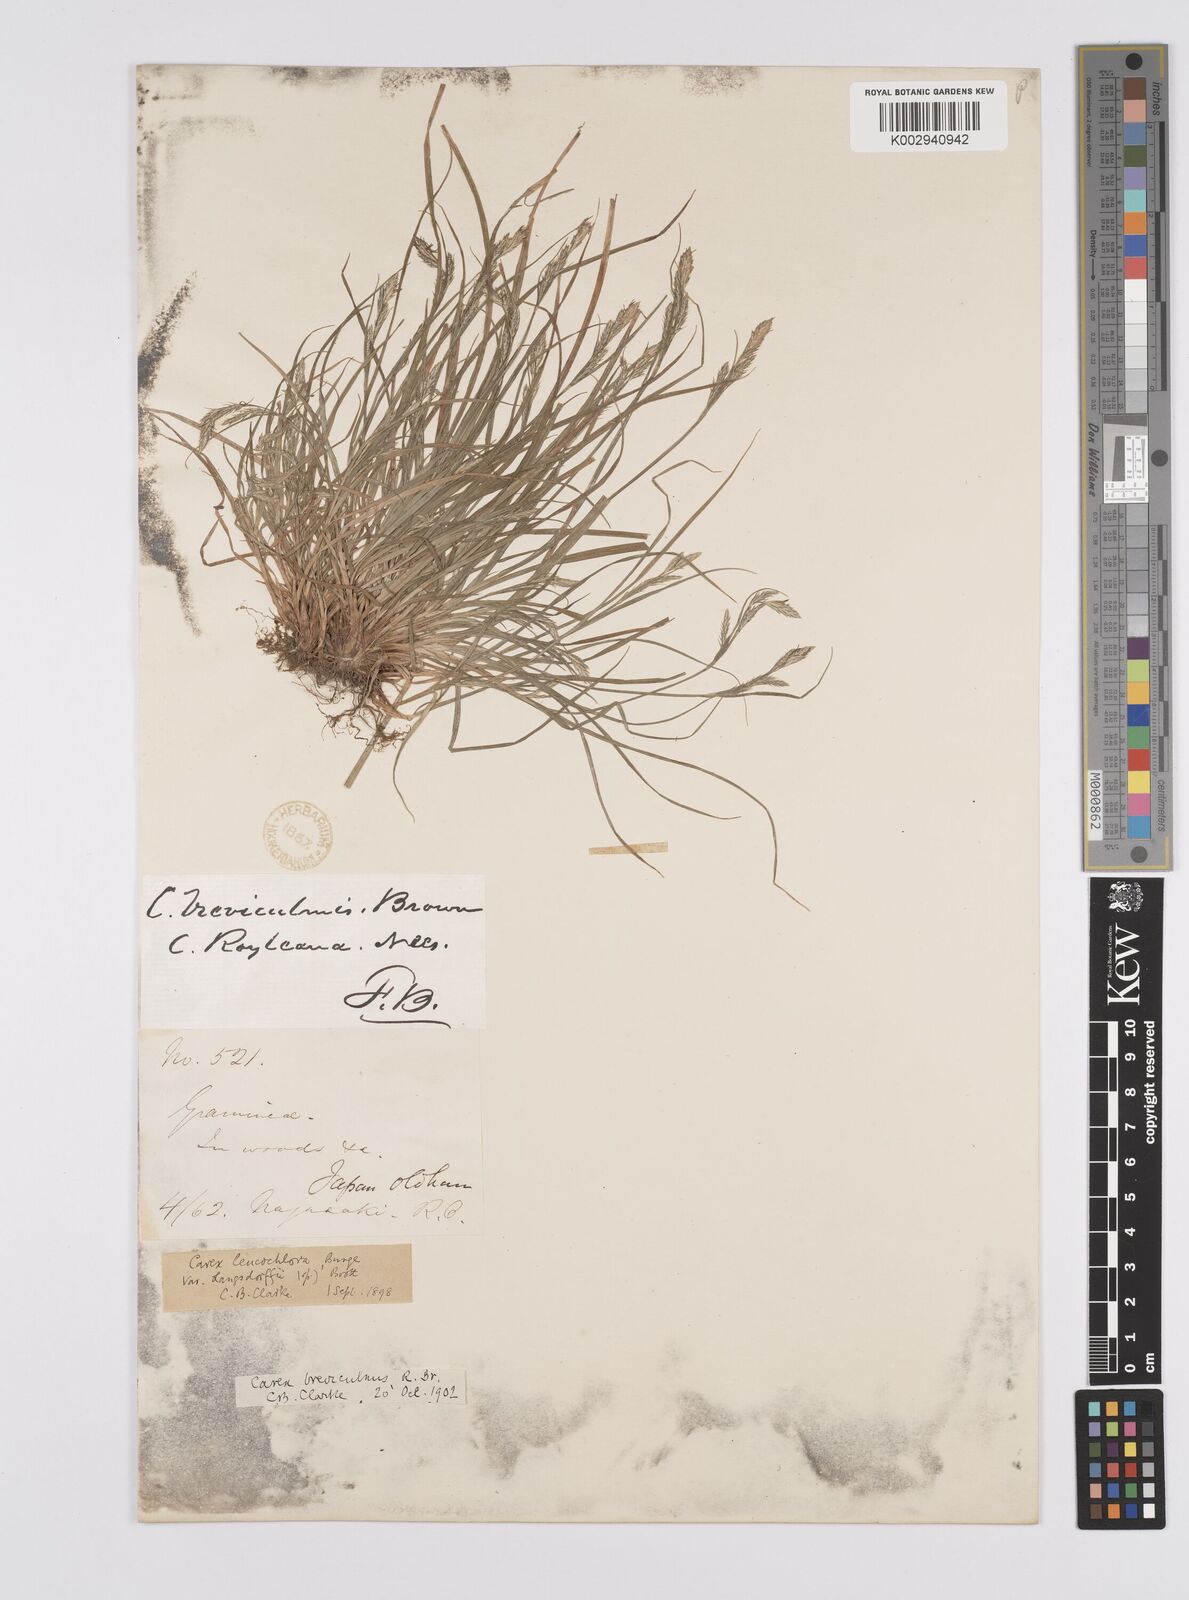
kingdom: Plantae
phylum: Tracheophyta
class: Liliopsida
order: Poales
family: Cyperaceae
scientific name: Cyperaceae
